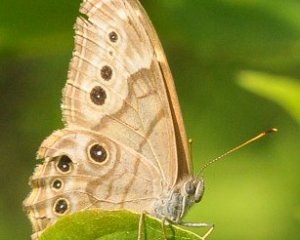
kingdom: Animalia
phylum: Arthropoda
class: Insecta
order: Lepidoptera
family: Nymphalidae
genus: Lethe
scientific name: Lethe anthedon
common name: Northern Pearly-Eye
